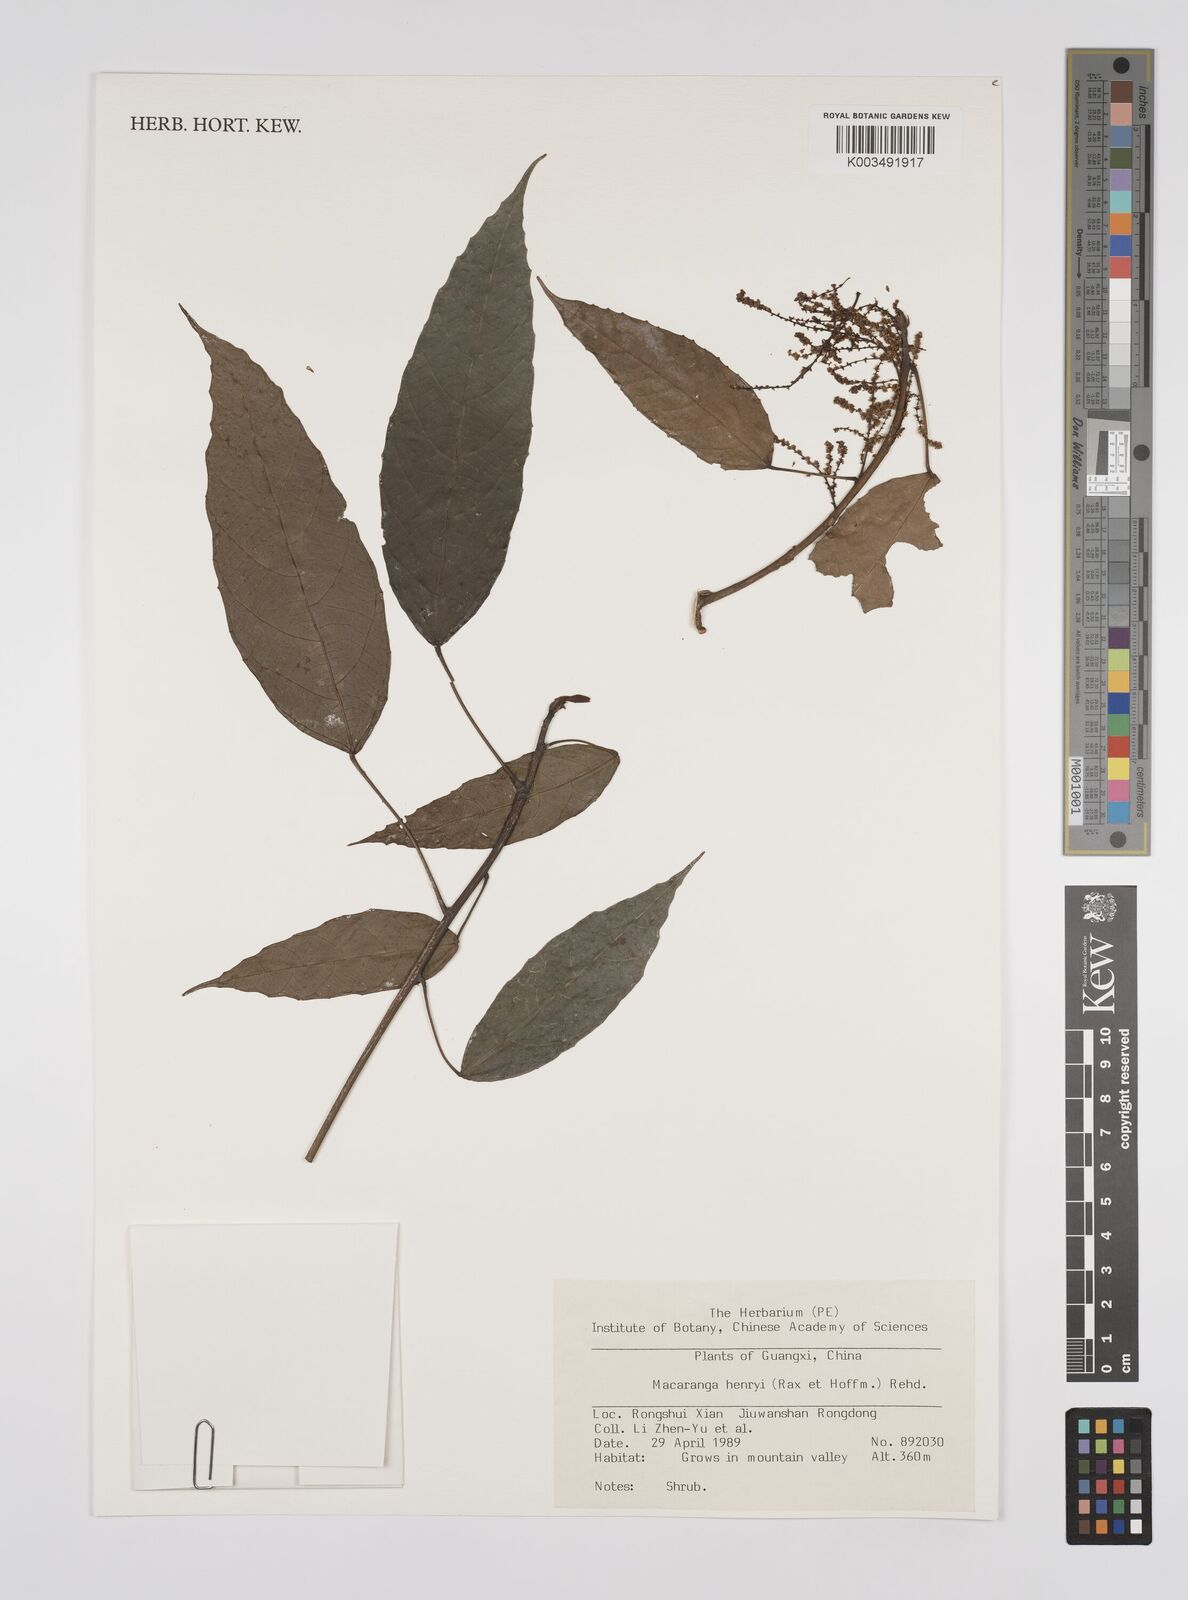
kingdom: Plantae
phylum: Tracheophyta
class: Magnoliopsida
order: Malpighiales
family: Euphorbiaceae
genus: Macaranga
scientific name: Macaranga henryi
